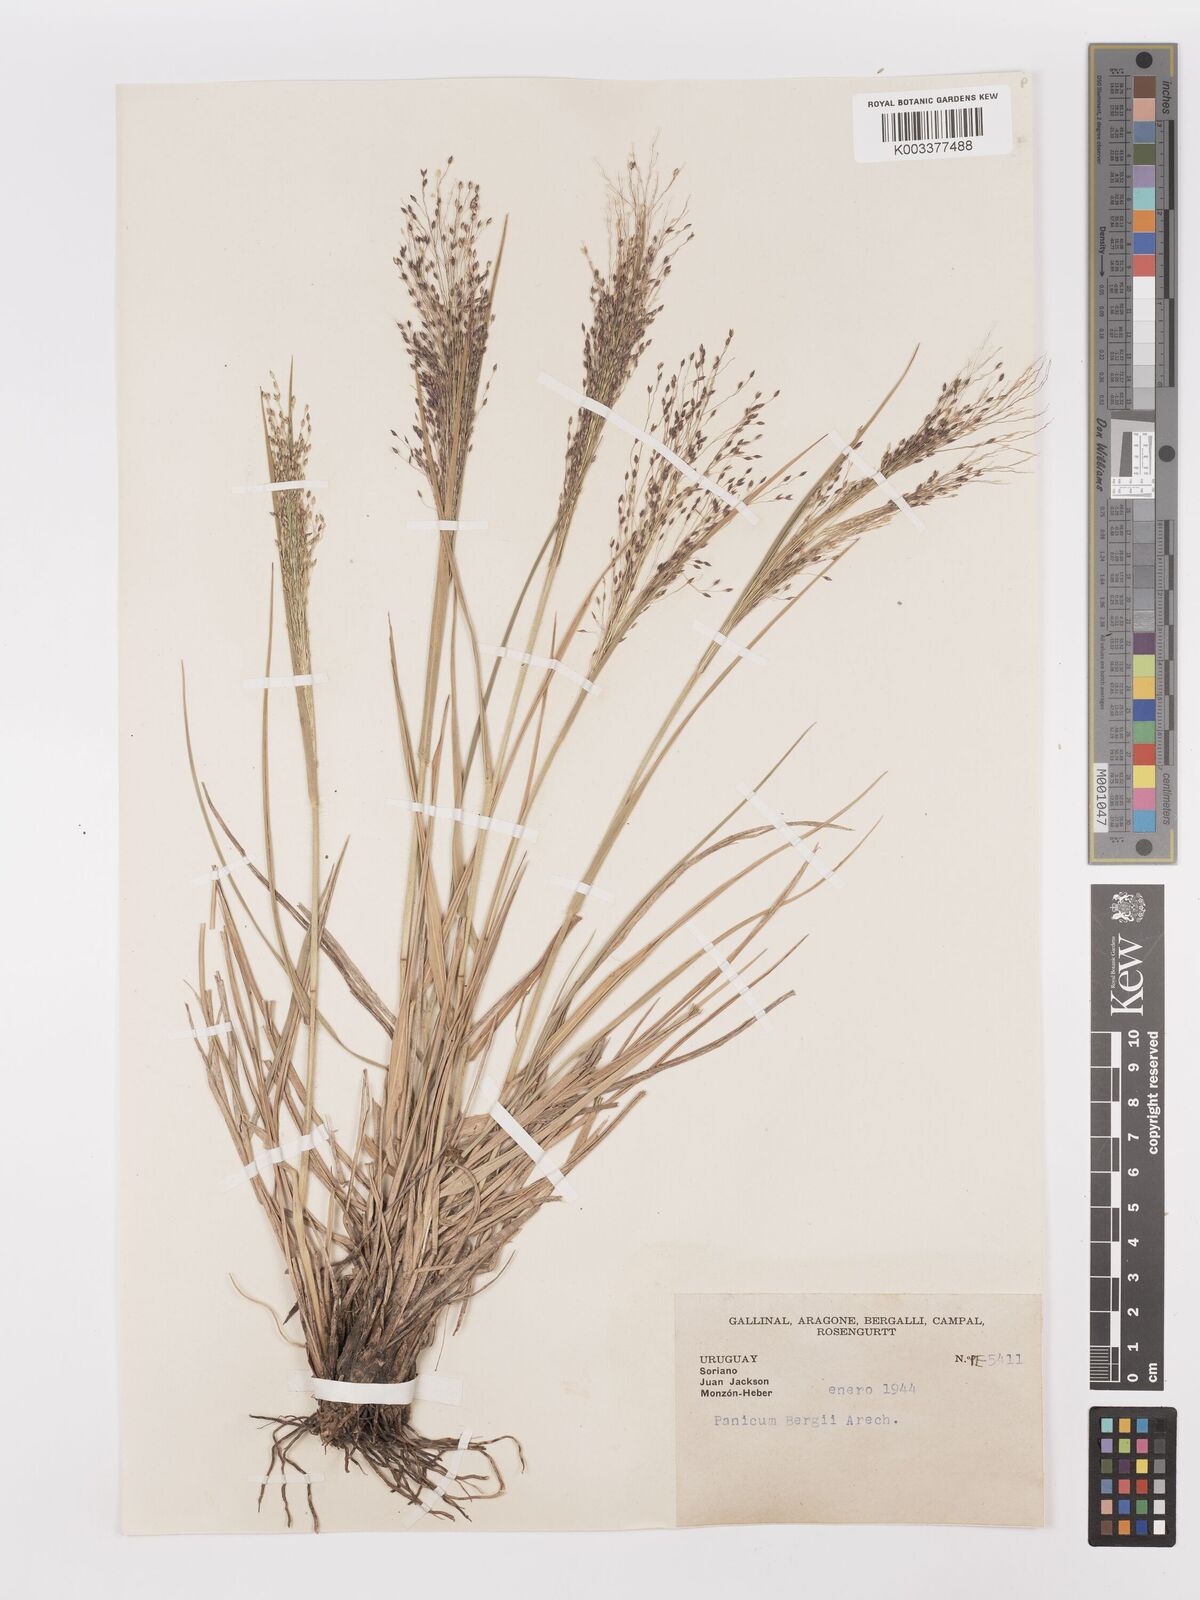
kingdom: Plantae
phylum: Tracheophyta
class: Liliopsida
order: Poales
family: Poaceae
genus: Panicum
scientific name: Panicum bergii
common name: Berg's panicgrass
